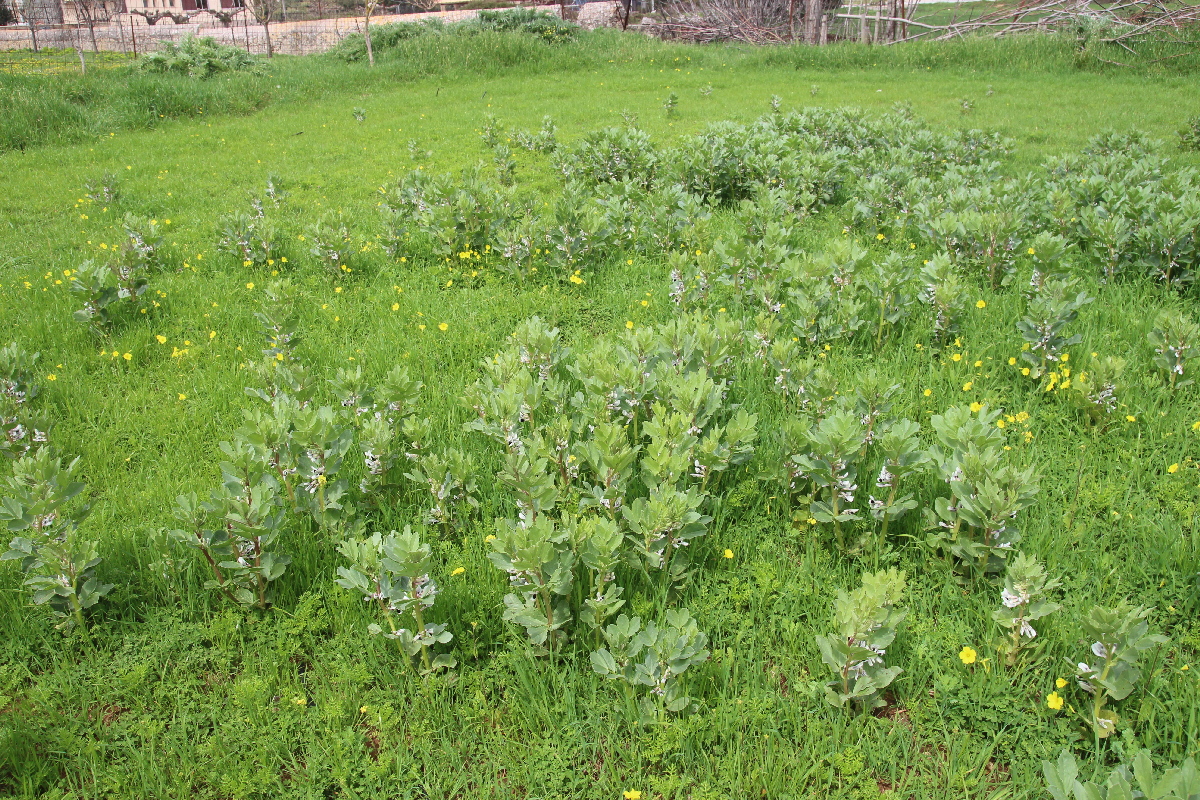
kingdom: Plantae
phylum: Tracheophyta
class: Magnoliopsida
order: Fabales
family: Fabaceae
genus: Vicia
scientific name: Vicia faba
